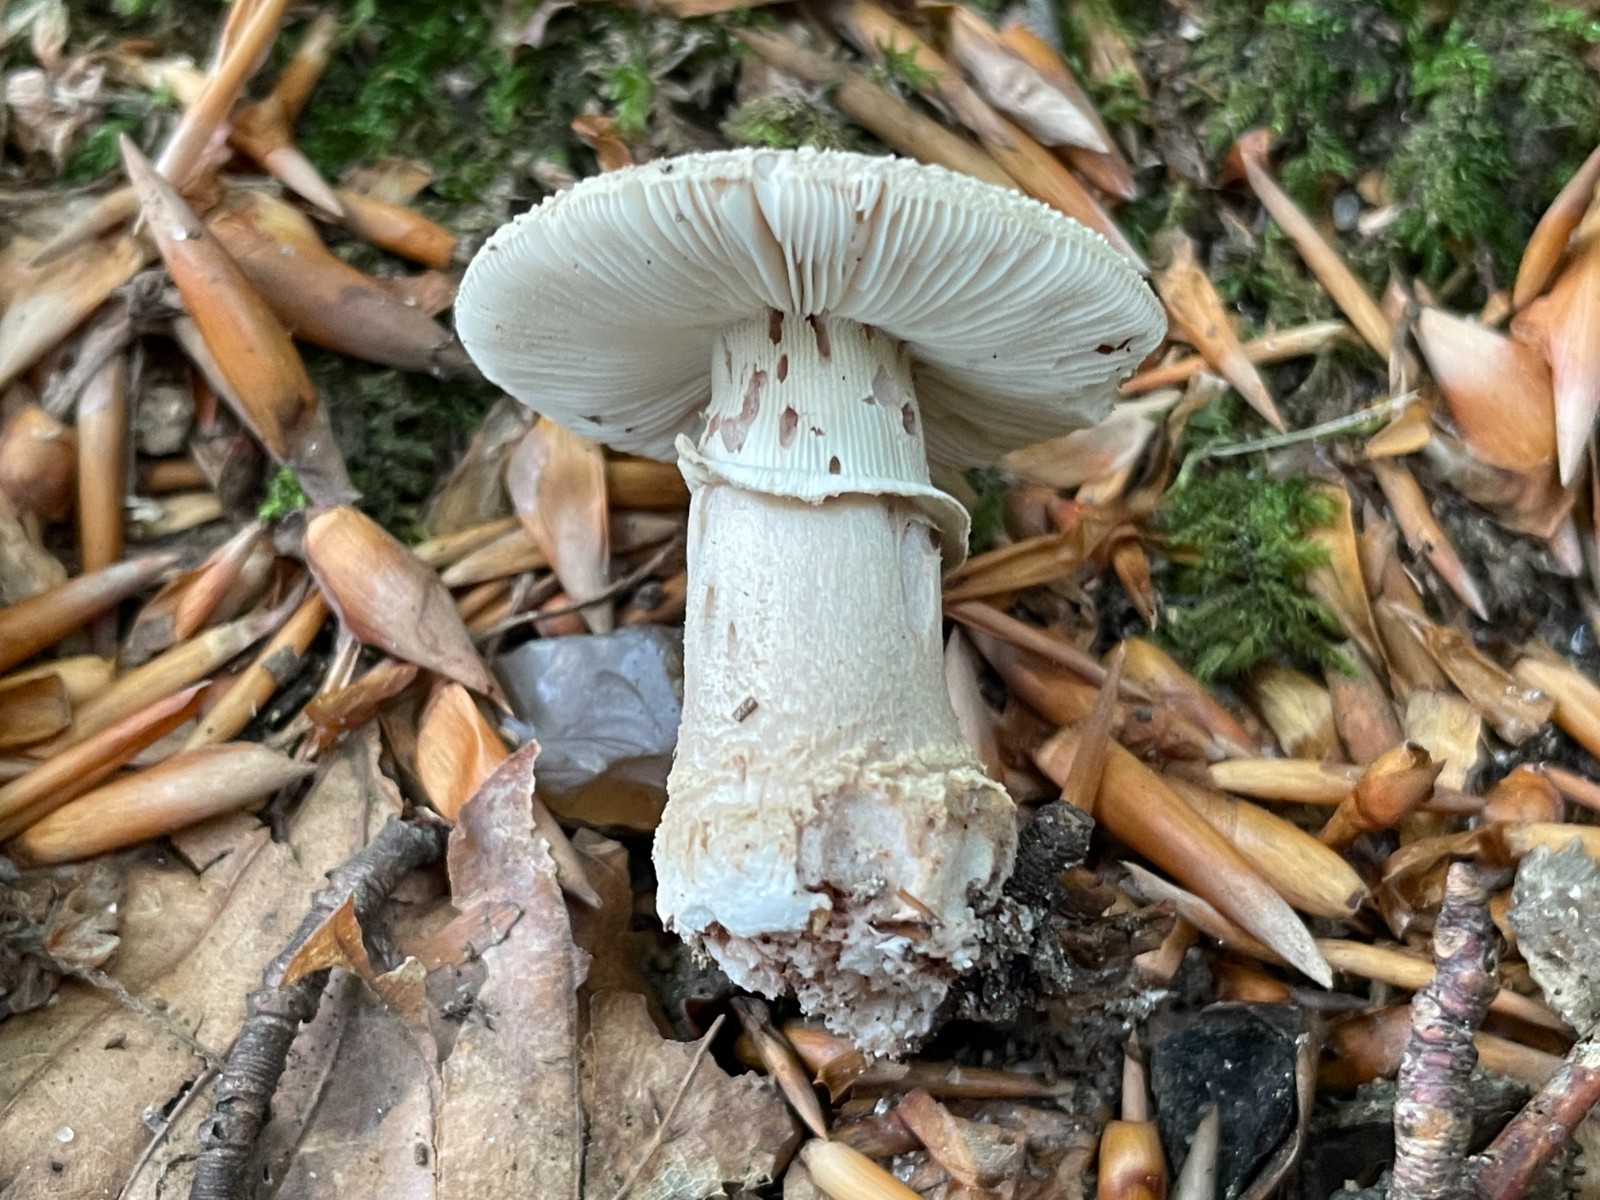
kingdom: Fungi
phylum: Basidiomycota
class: Agaricomycetes
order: Agaricales
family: Amanitaceae
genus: Amanita
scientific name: Amanita rubescens
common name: rødmende fluesvamp
